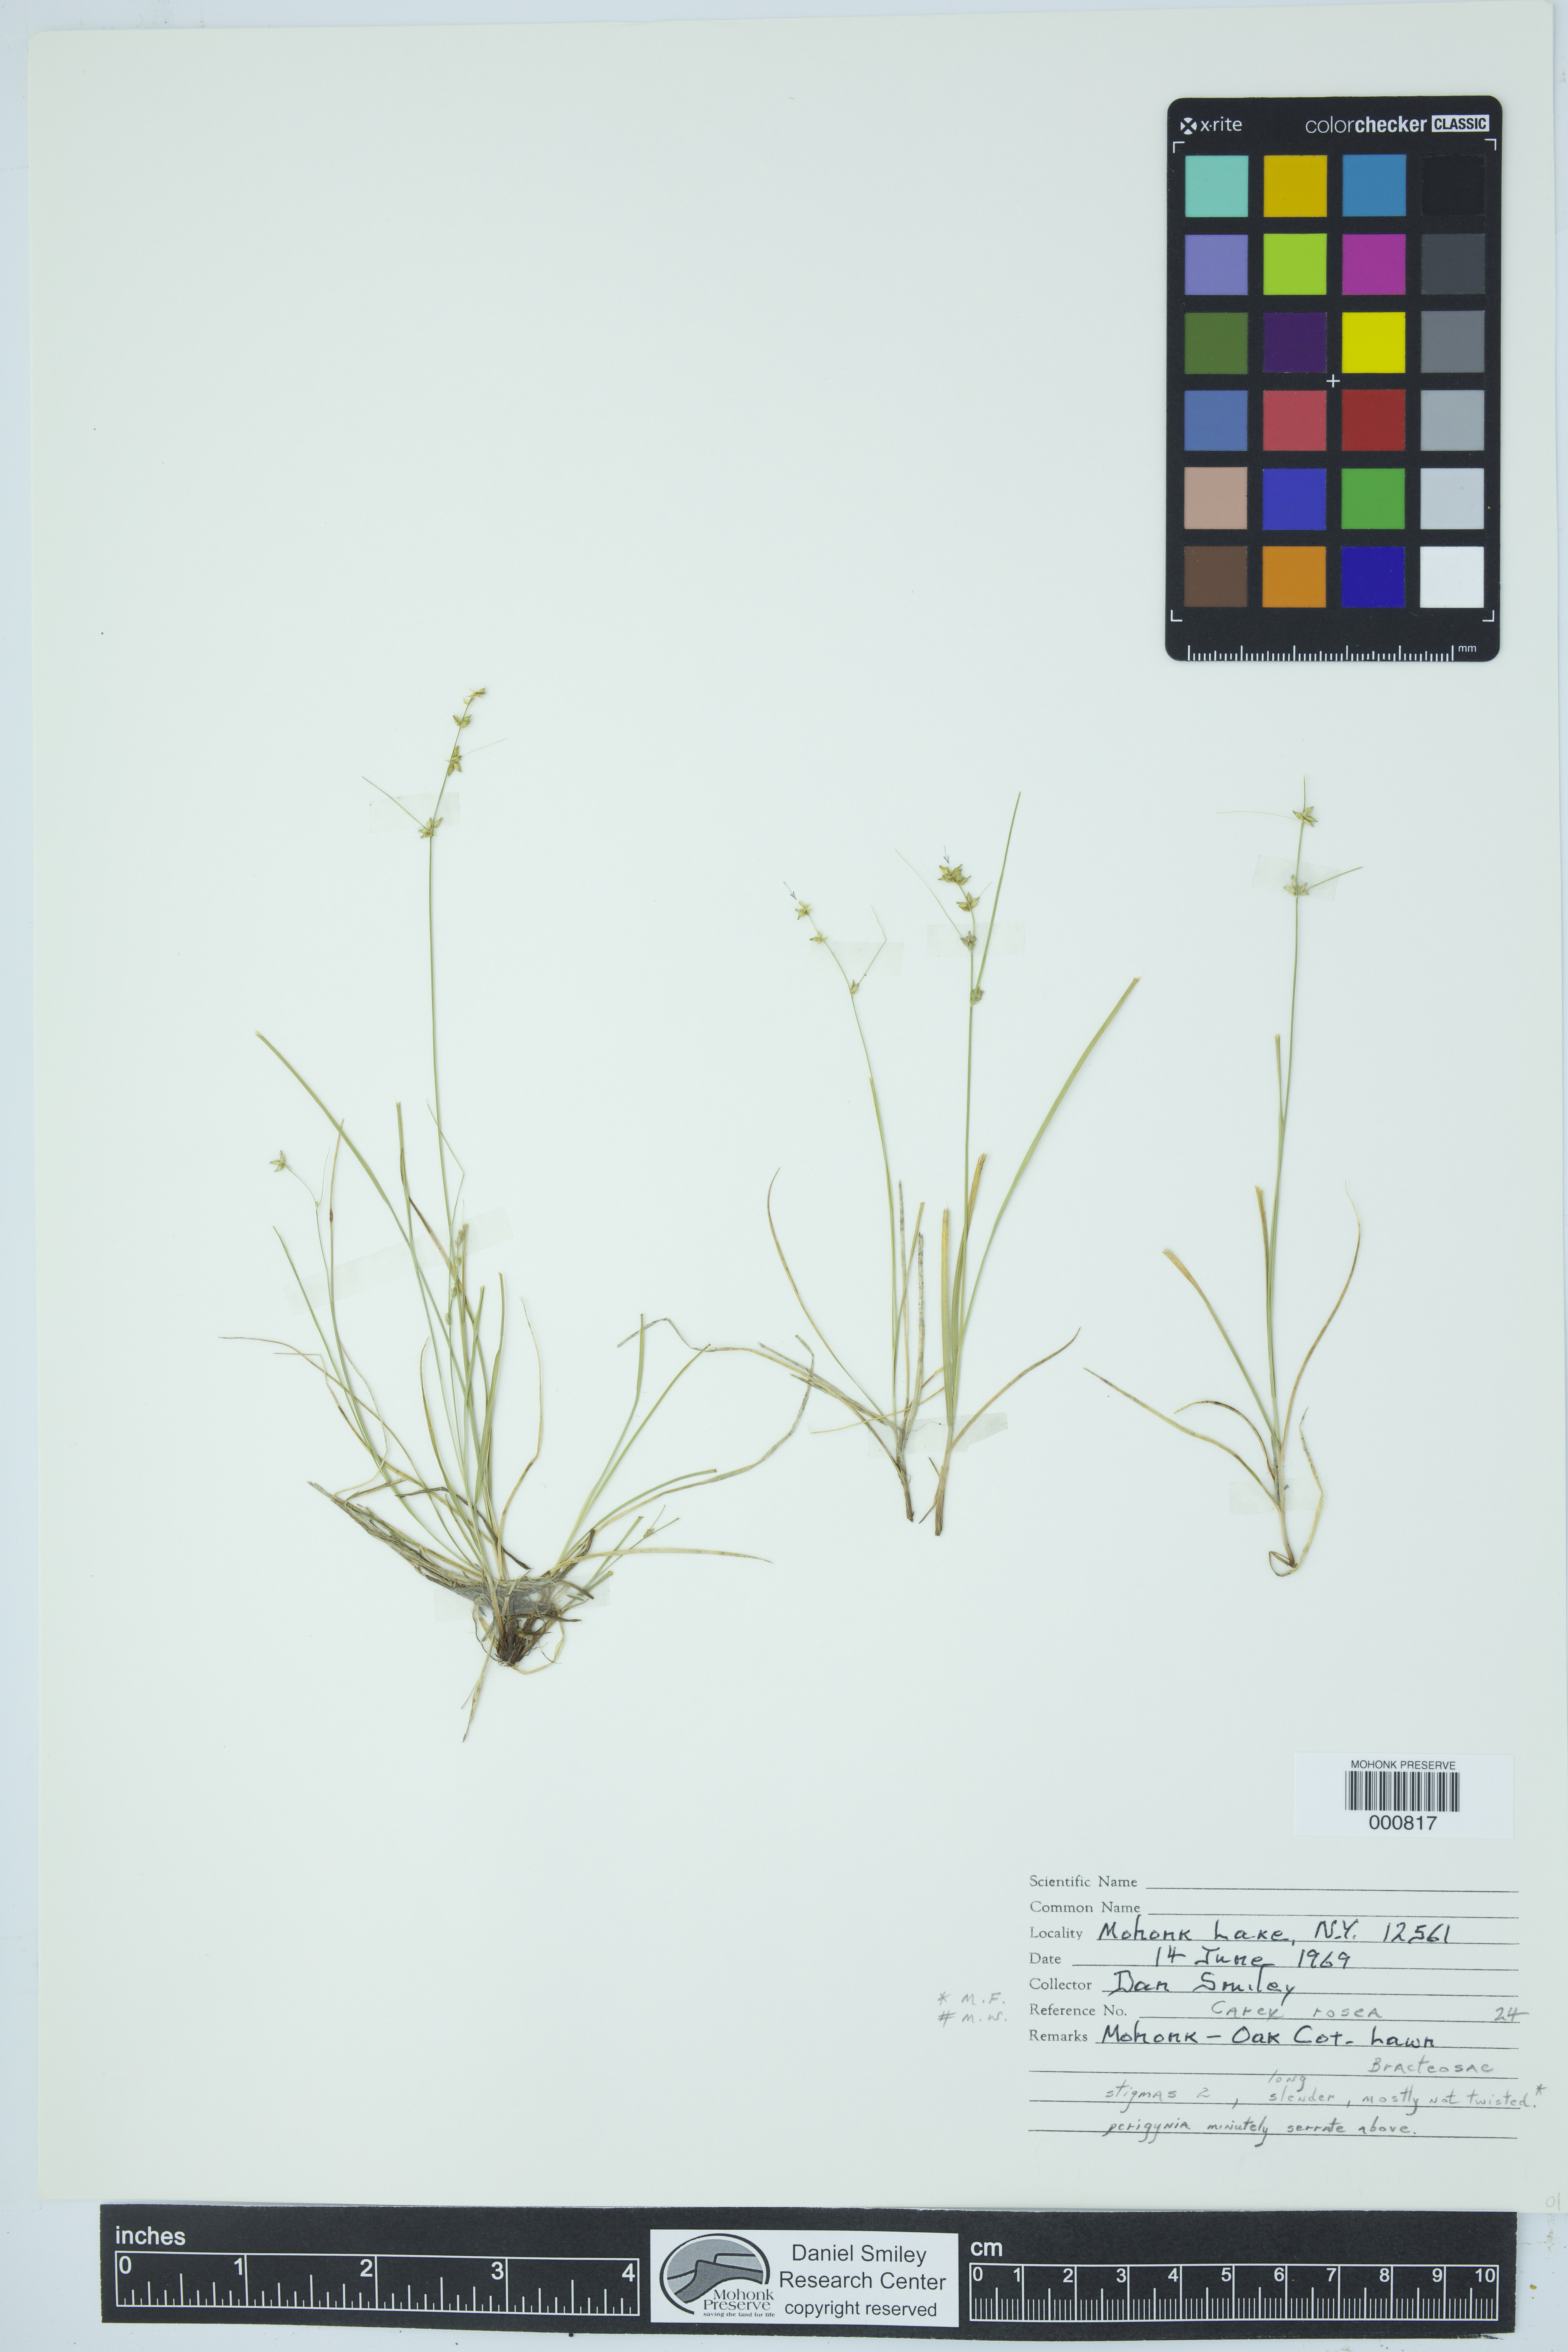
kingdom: Plantae
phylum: Tracheophyta
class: Liliopsida
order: Poales
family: Cyperaceae
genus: Carex
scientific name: Carex rosea
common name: Curly-styled wood sedge
